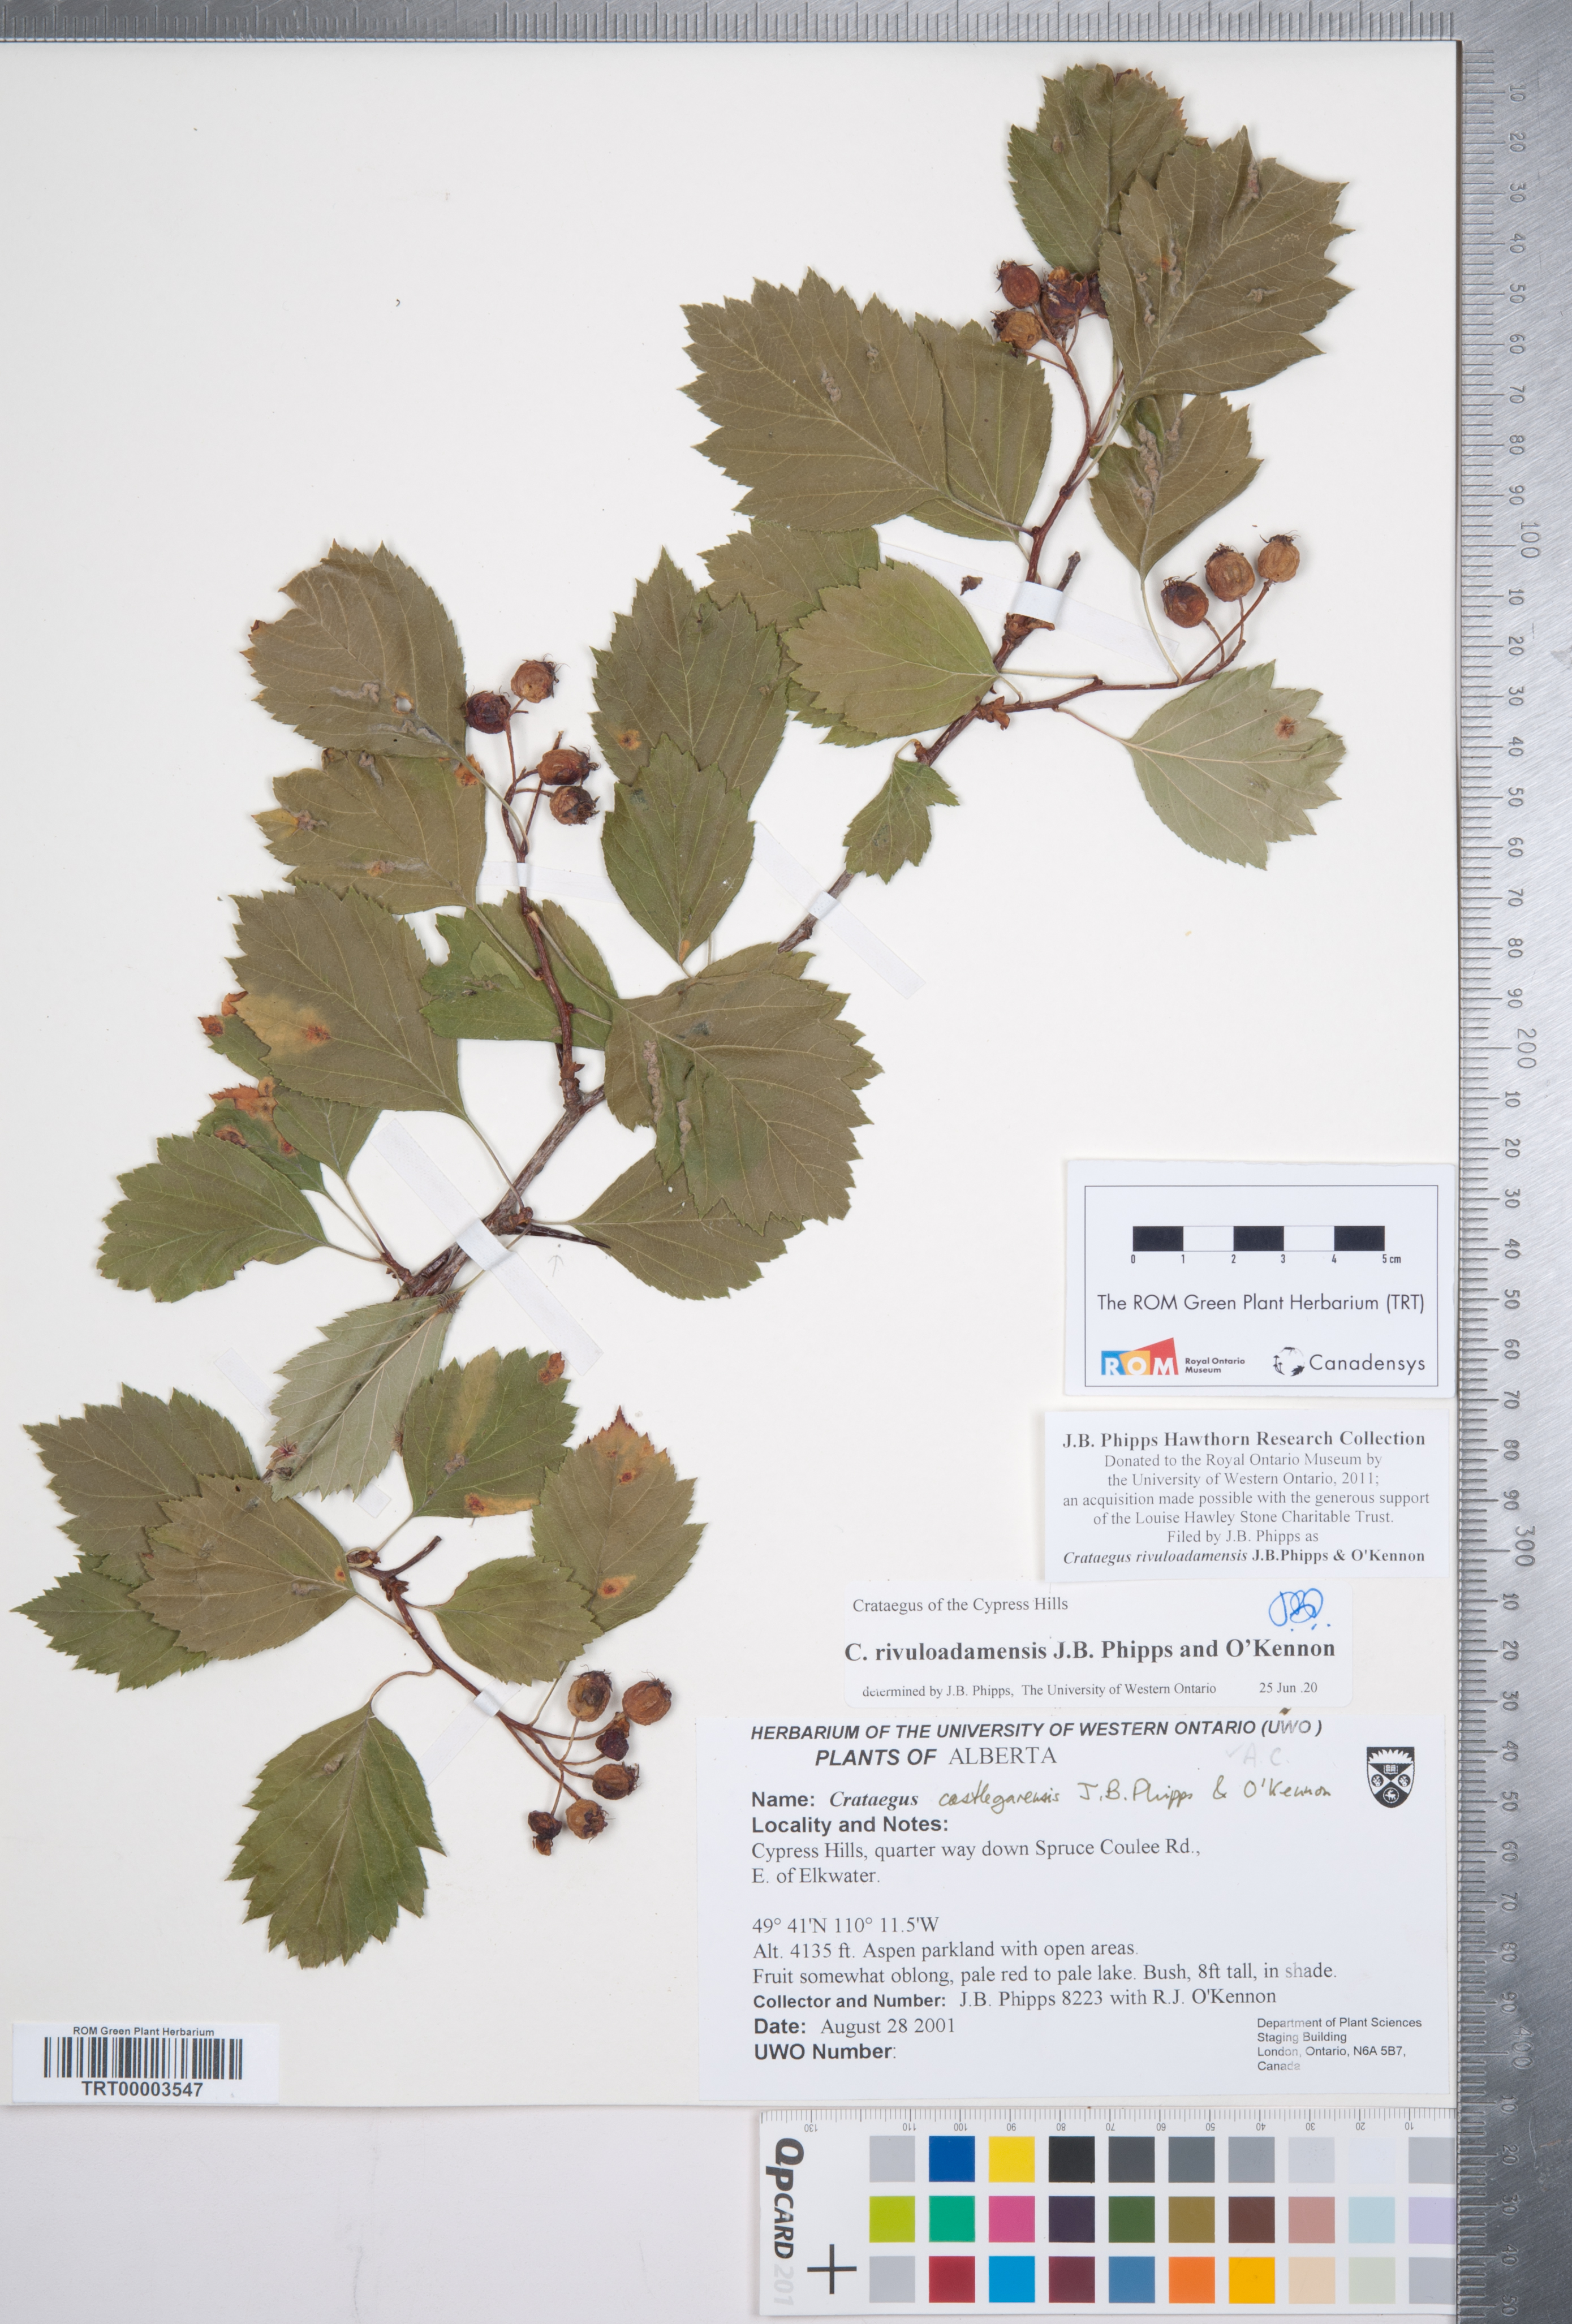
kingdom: Plantae
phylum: Tracheophyta
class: Magnoliopsida
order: Rosales
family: Rosaceae
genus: Crataegus
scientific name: Crataegus rivuloadamensis
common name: Adams creek hawthorn
